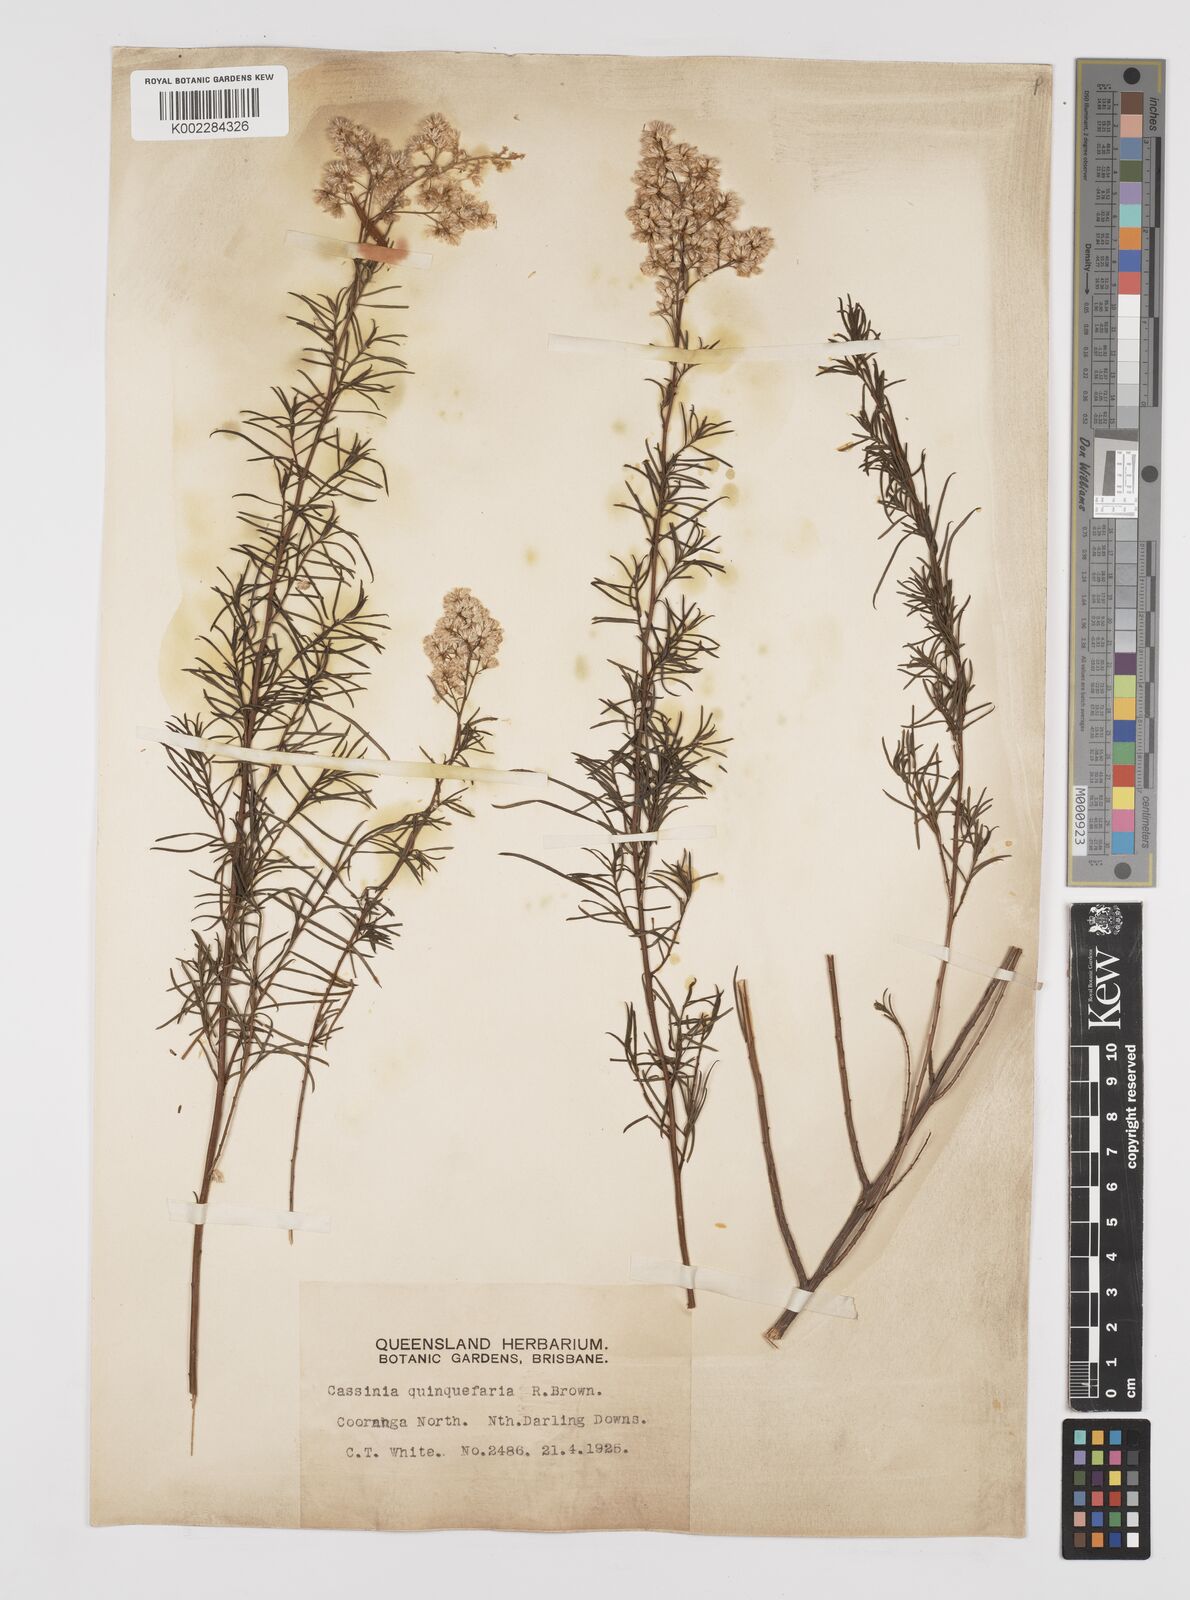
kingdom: Plantae
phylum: Tracheophyta
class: Magnoliopsida
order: Asterales
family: Asteraceae
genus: Cassinia
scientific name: Cassinia quinquefaria
